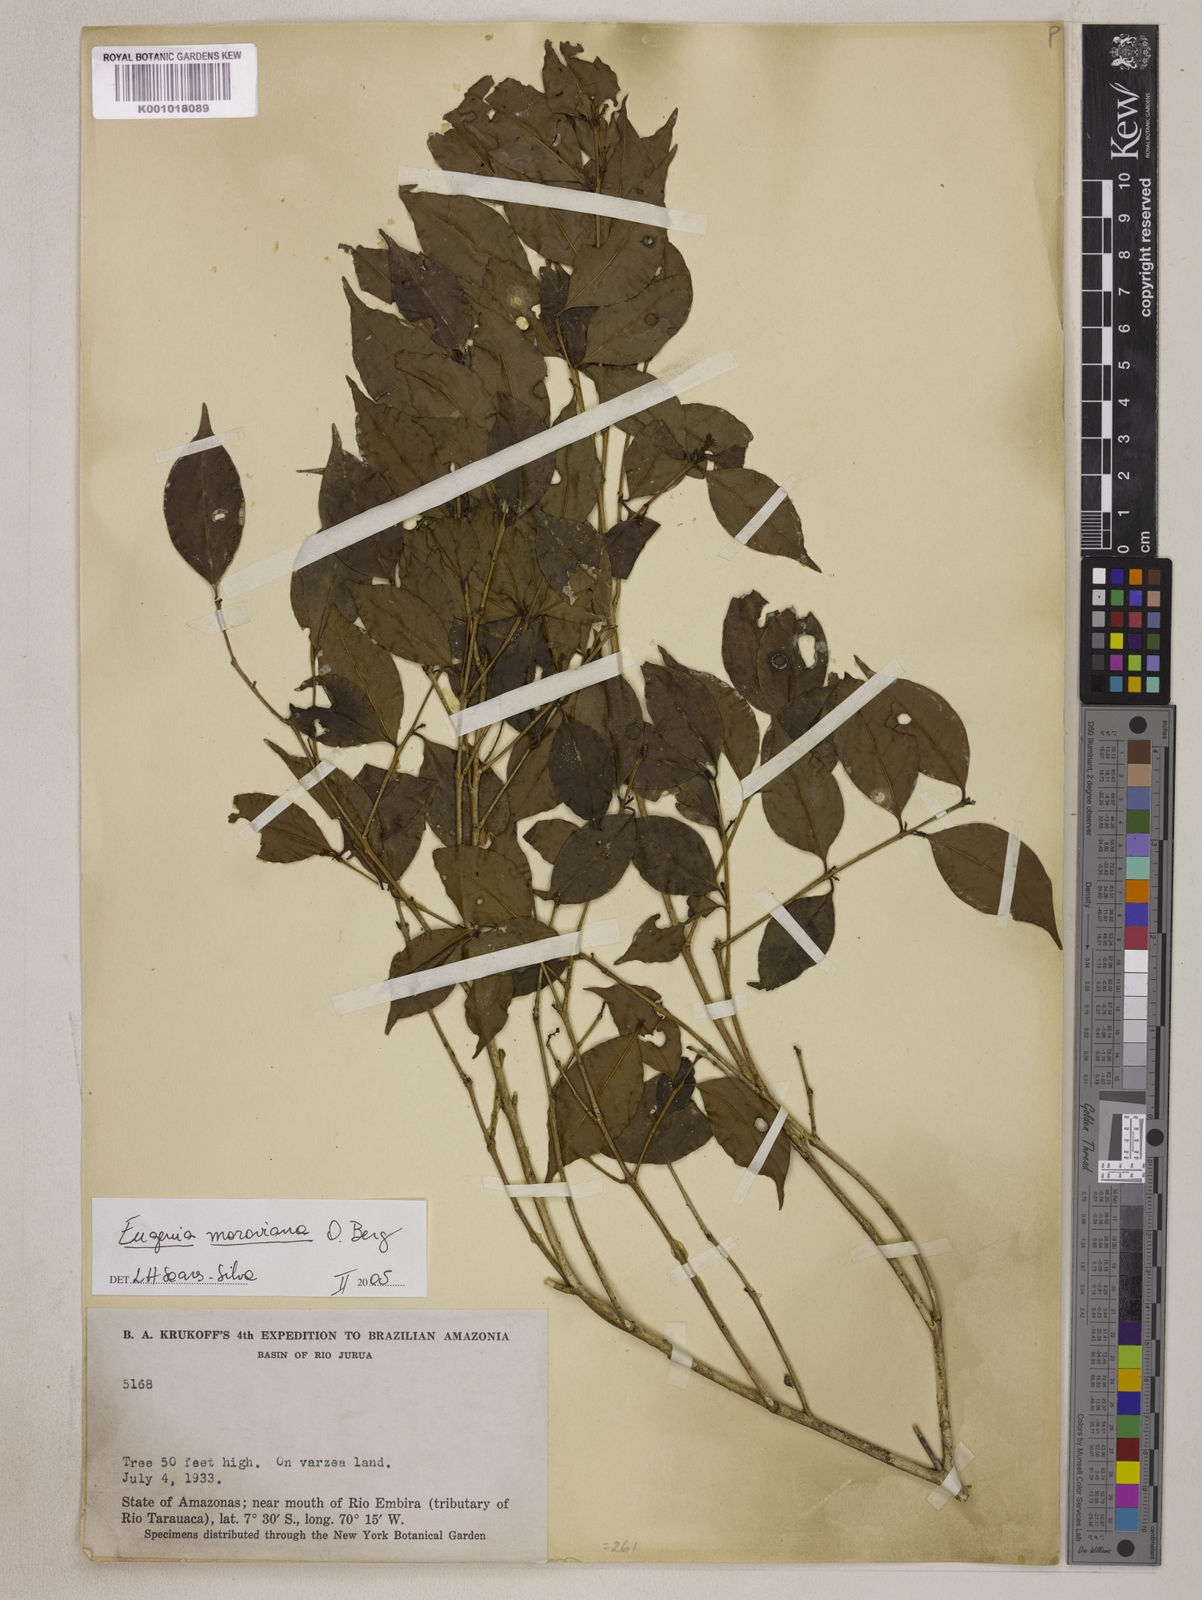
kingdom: Plantae
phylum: Tracheophyta
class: Magnoliopsida
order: Myrtales
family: Myrtaceae
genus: Eugenia
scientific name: Eugenia modesta
